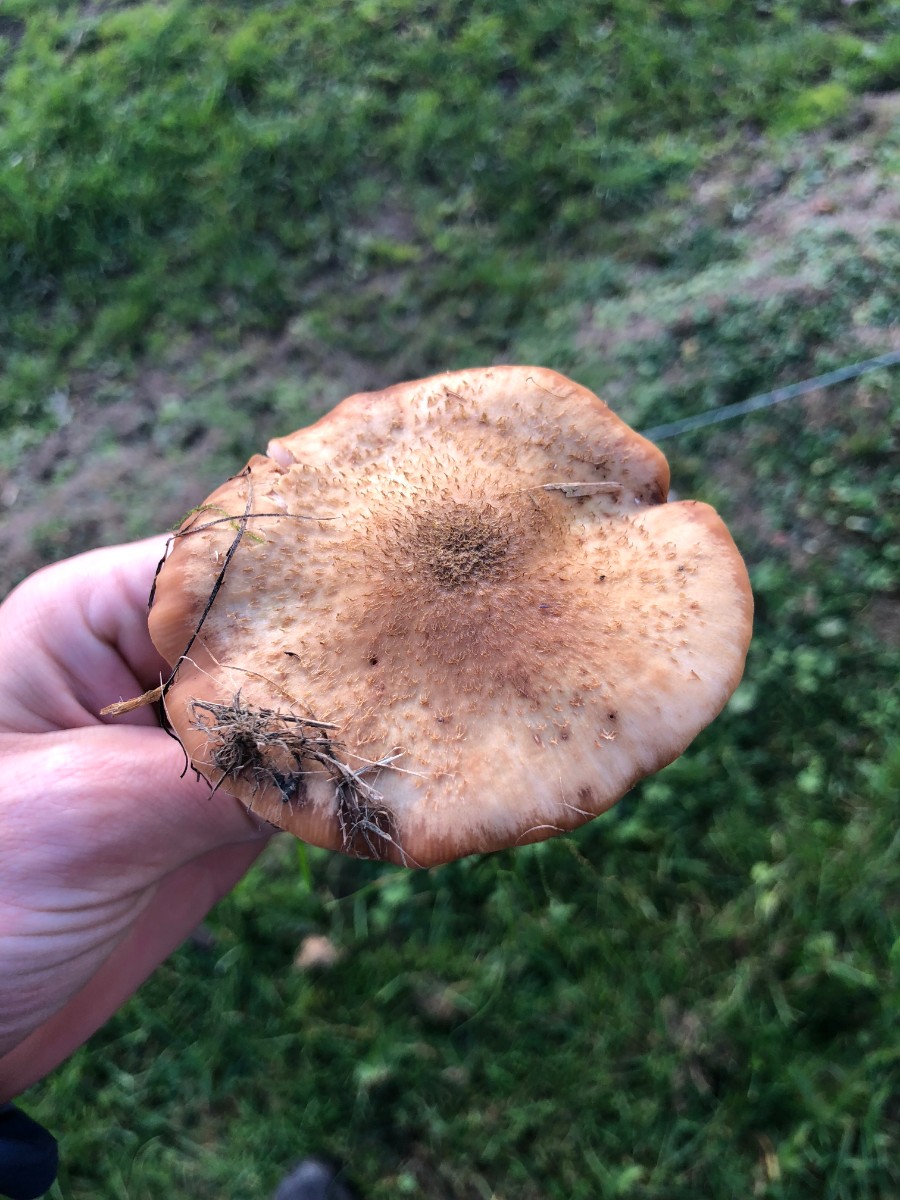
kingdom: Fungi
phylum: Basidiomycota
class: Agaricomycetes
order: Agaricales
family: Physalacriaceae
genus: Armillaria
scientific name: Armillaria lutea
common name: køllestokket honningsvamp
